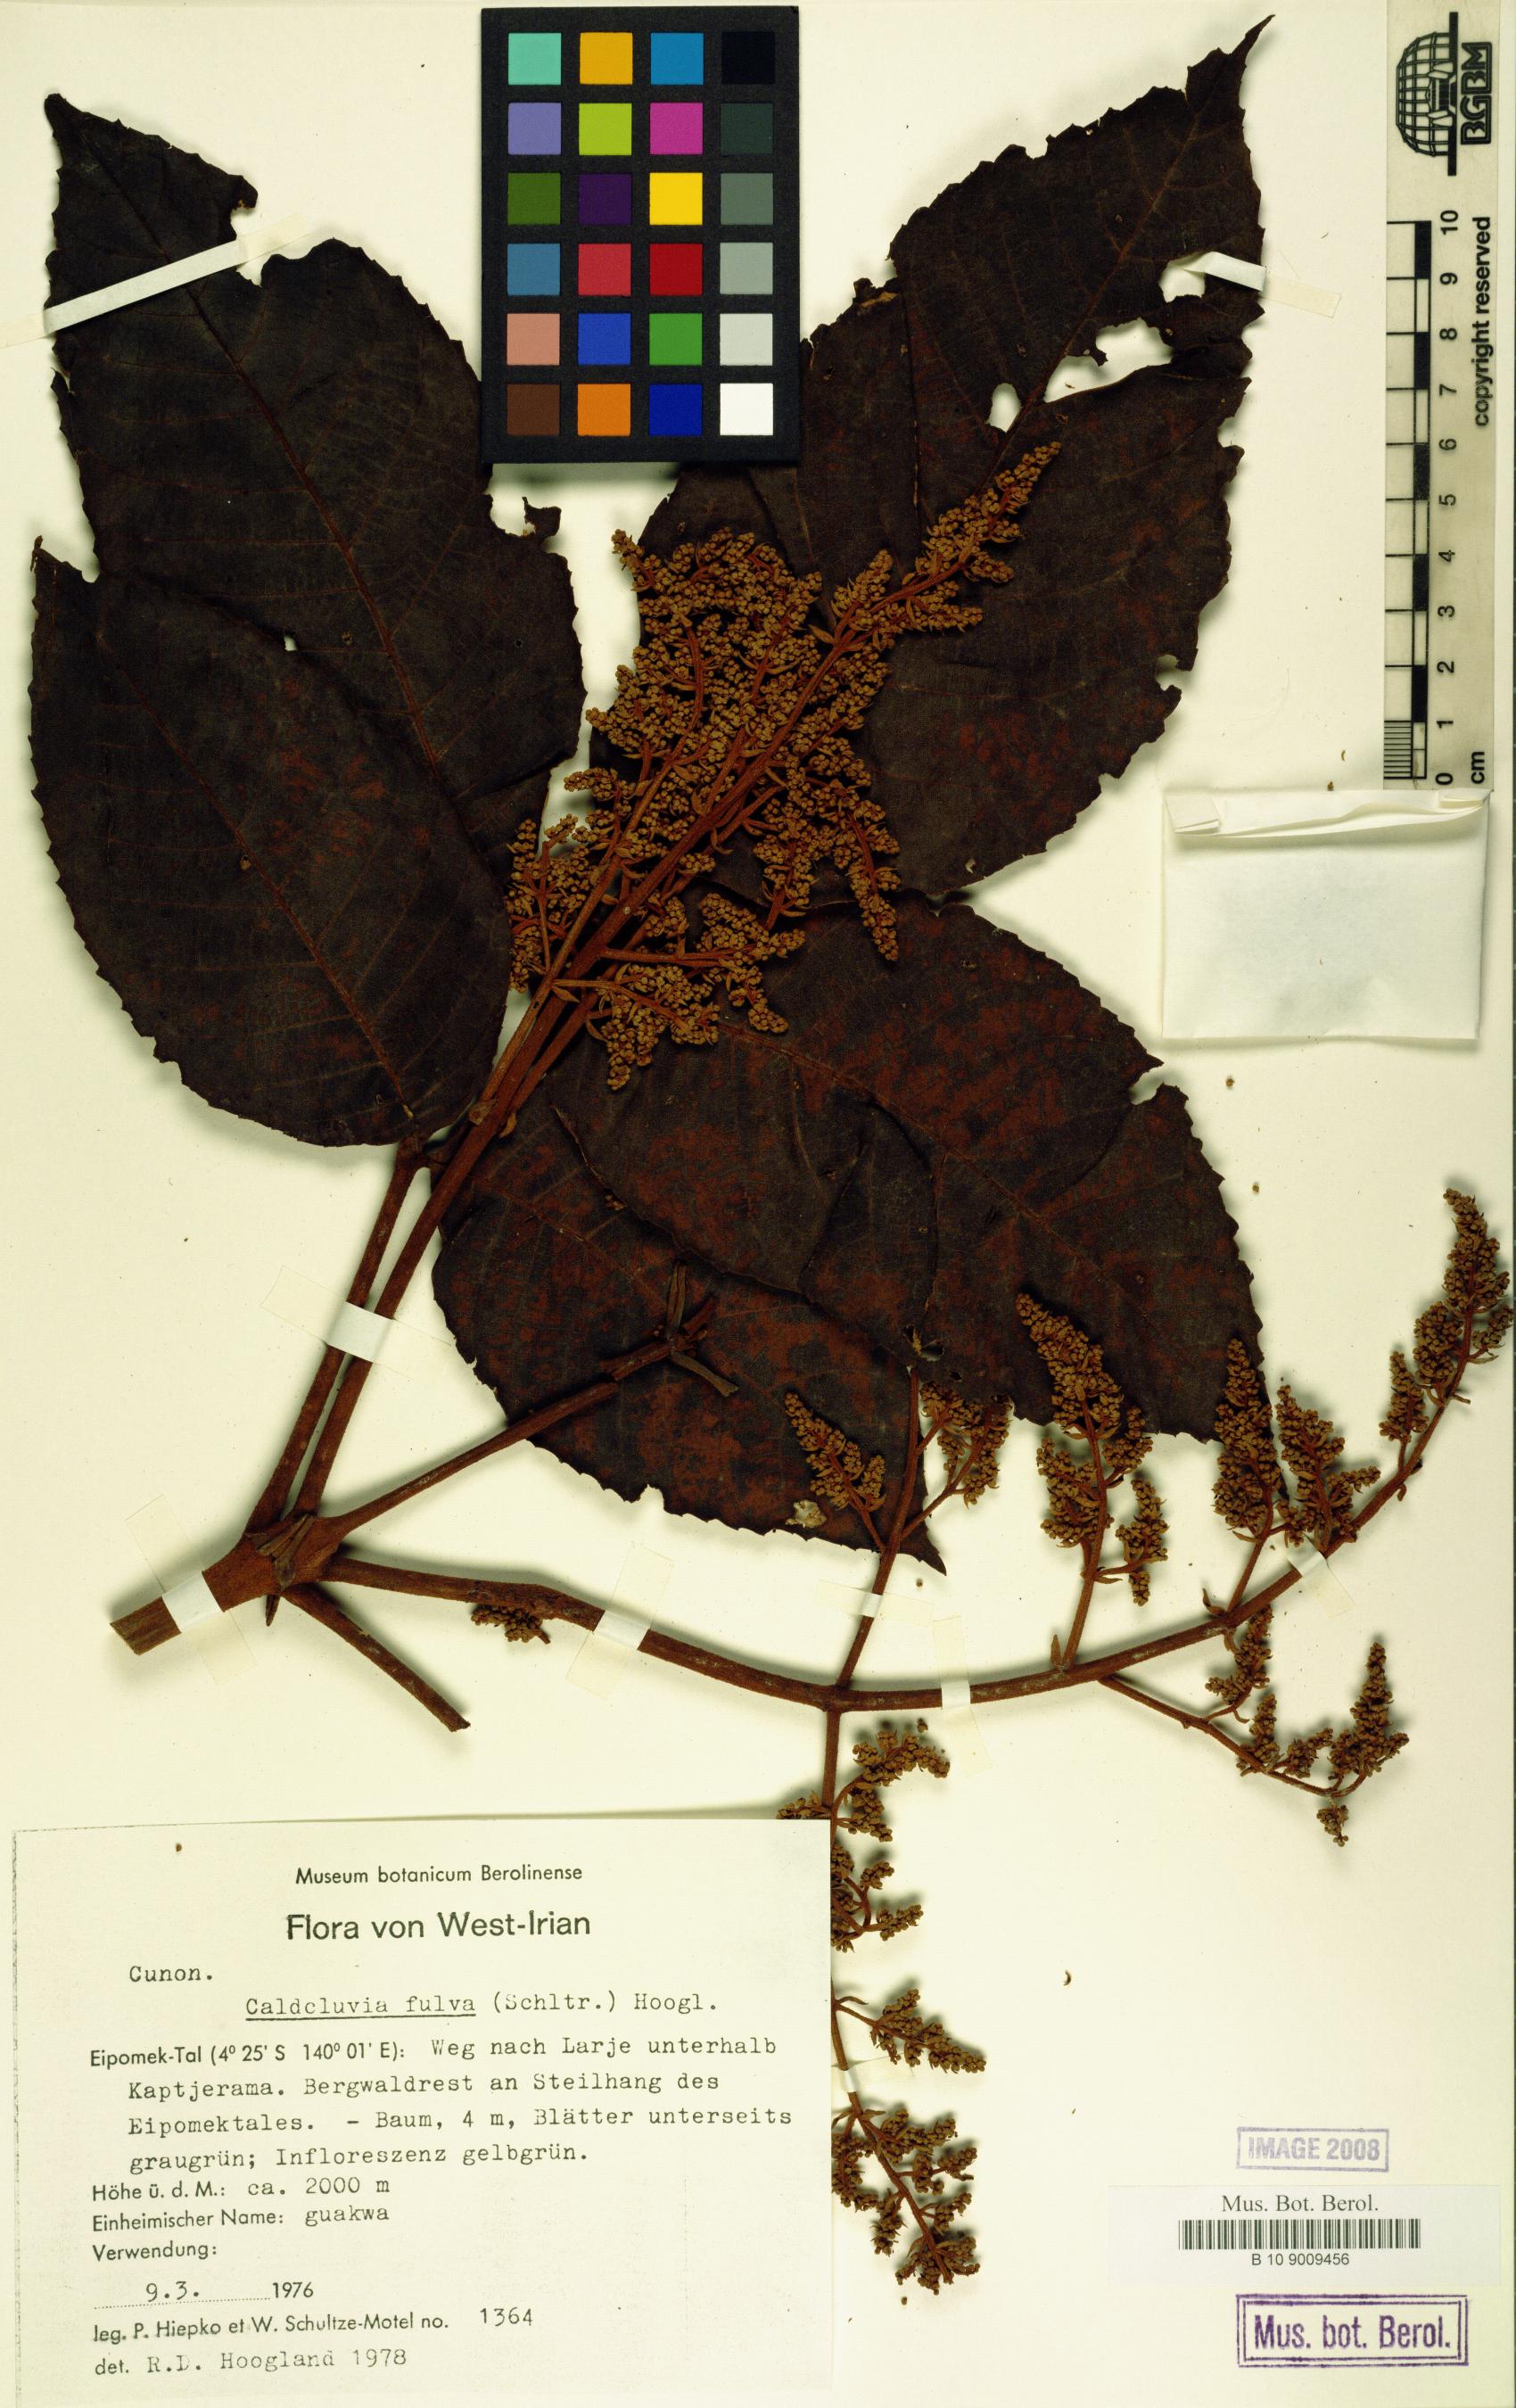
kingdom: Plantae
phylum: Tracheophyta
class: Magnoliopsida
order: Oxalidales
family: Cunoniaceae
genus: Ackama
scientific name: Ackama fulva
